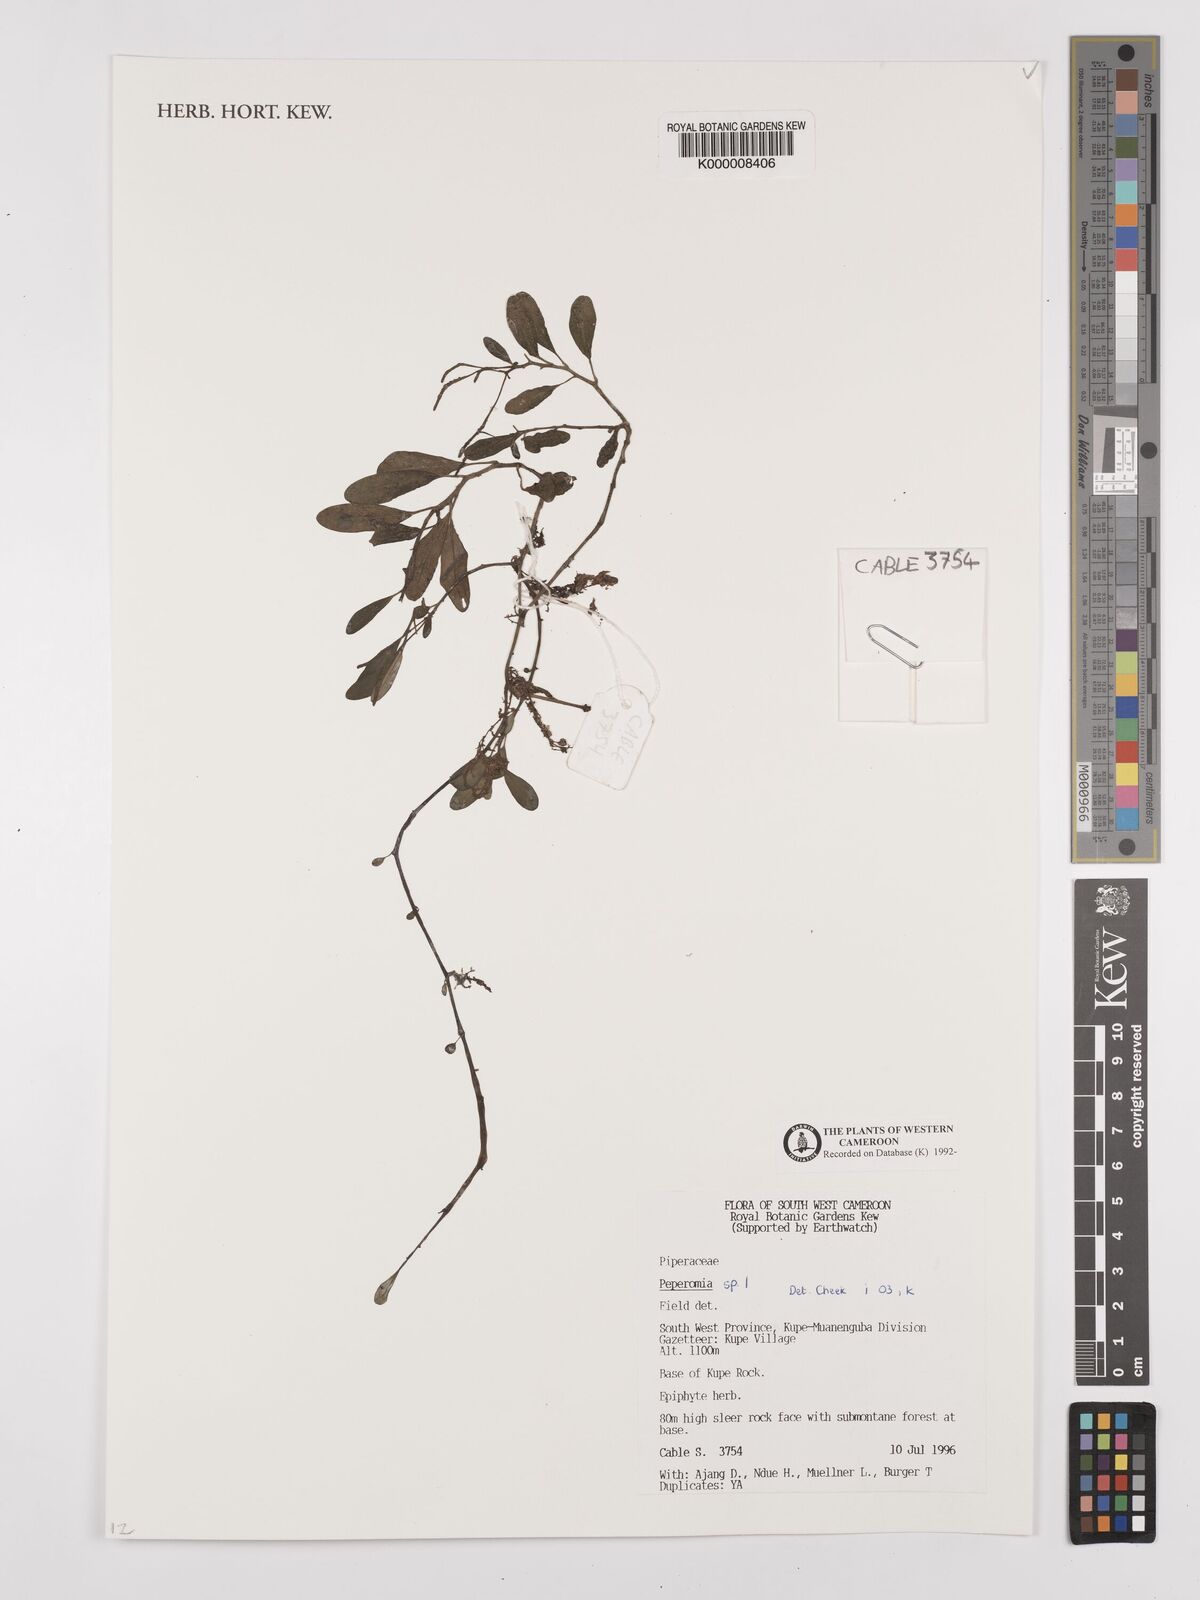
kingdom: Plantae
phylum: Tracheophyta
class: Magnoliopsida
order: Piperales
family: Piperaceae
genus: Peperomia
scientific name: Peperomia thomeana
